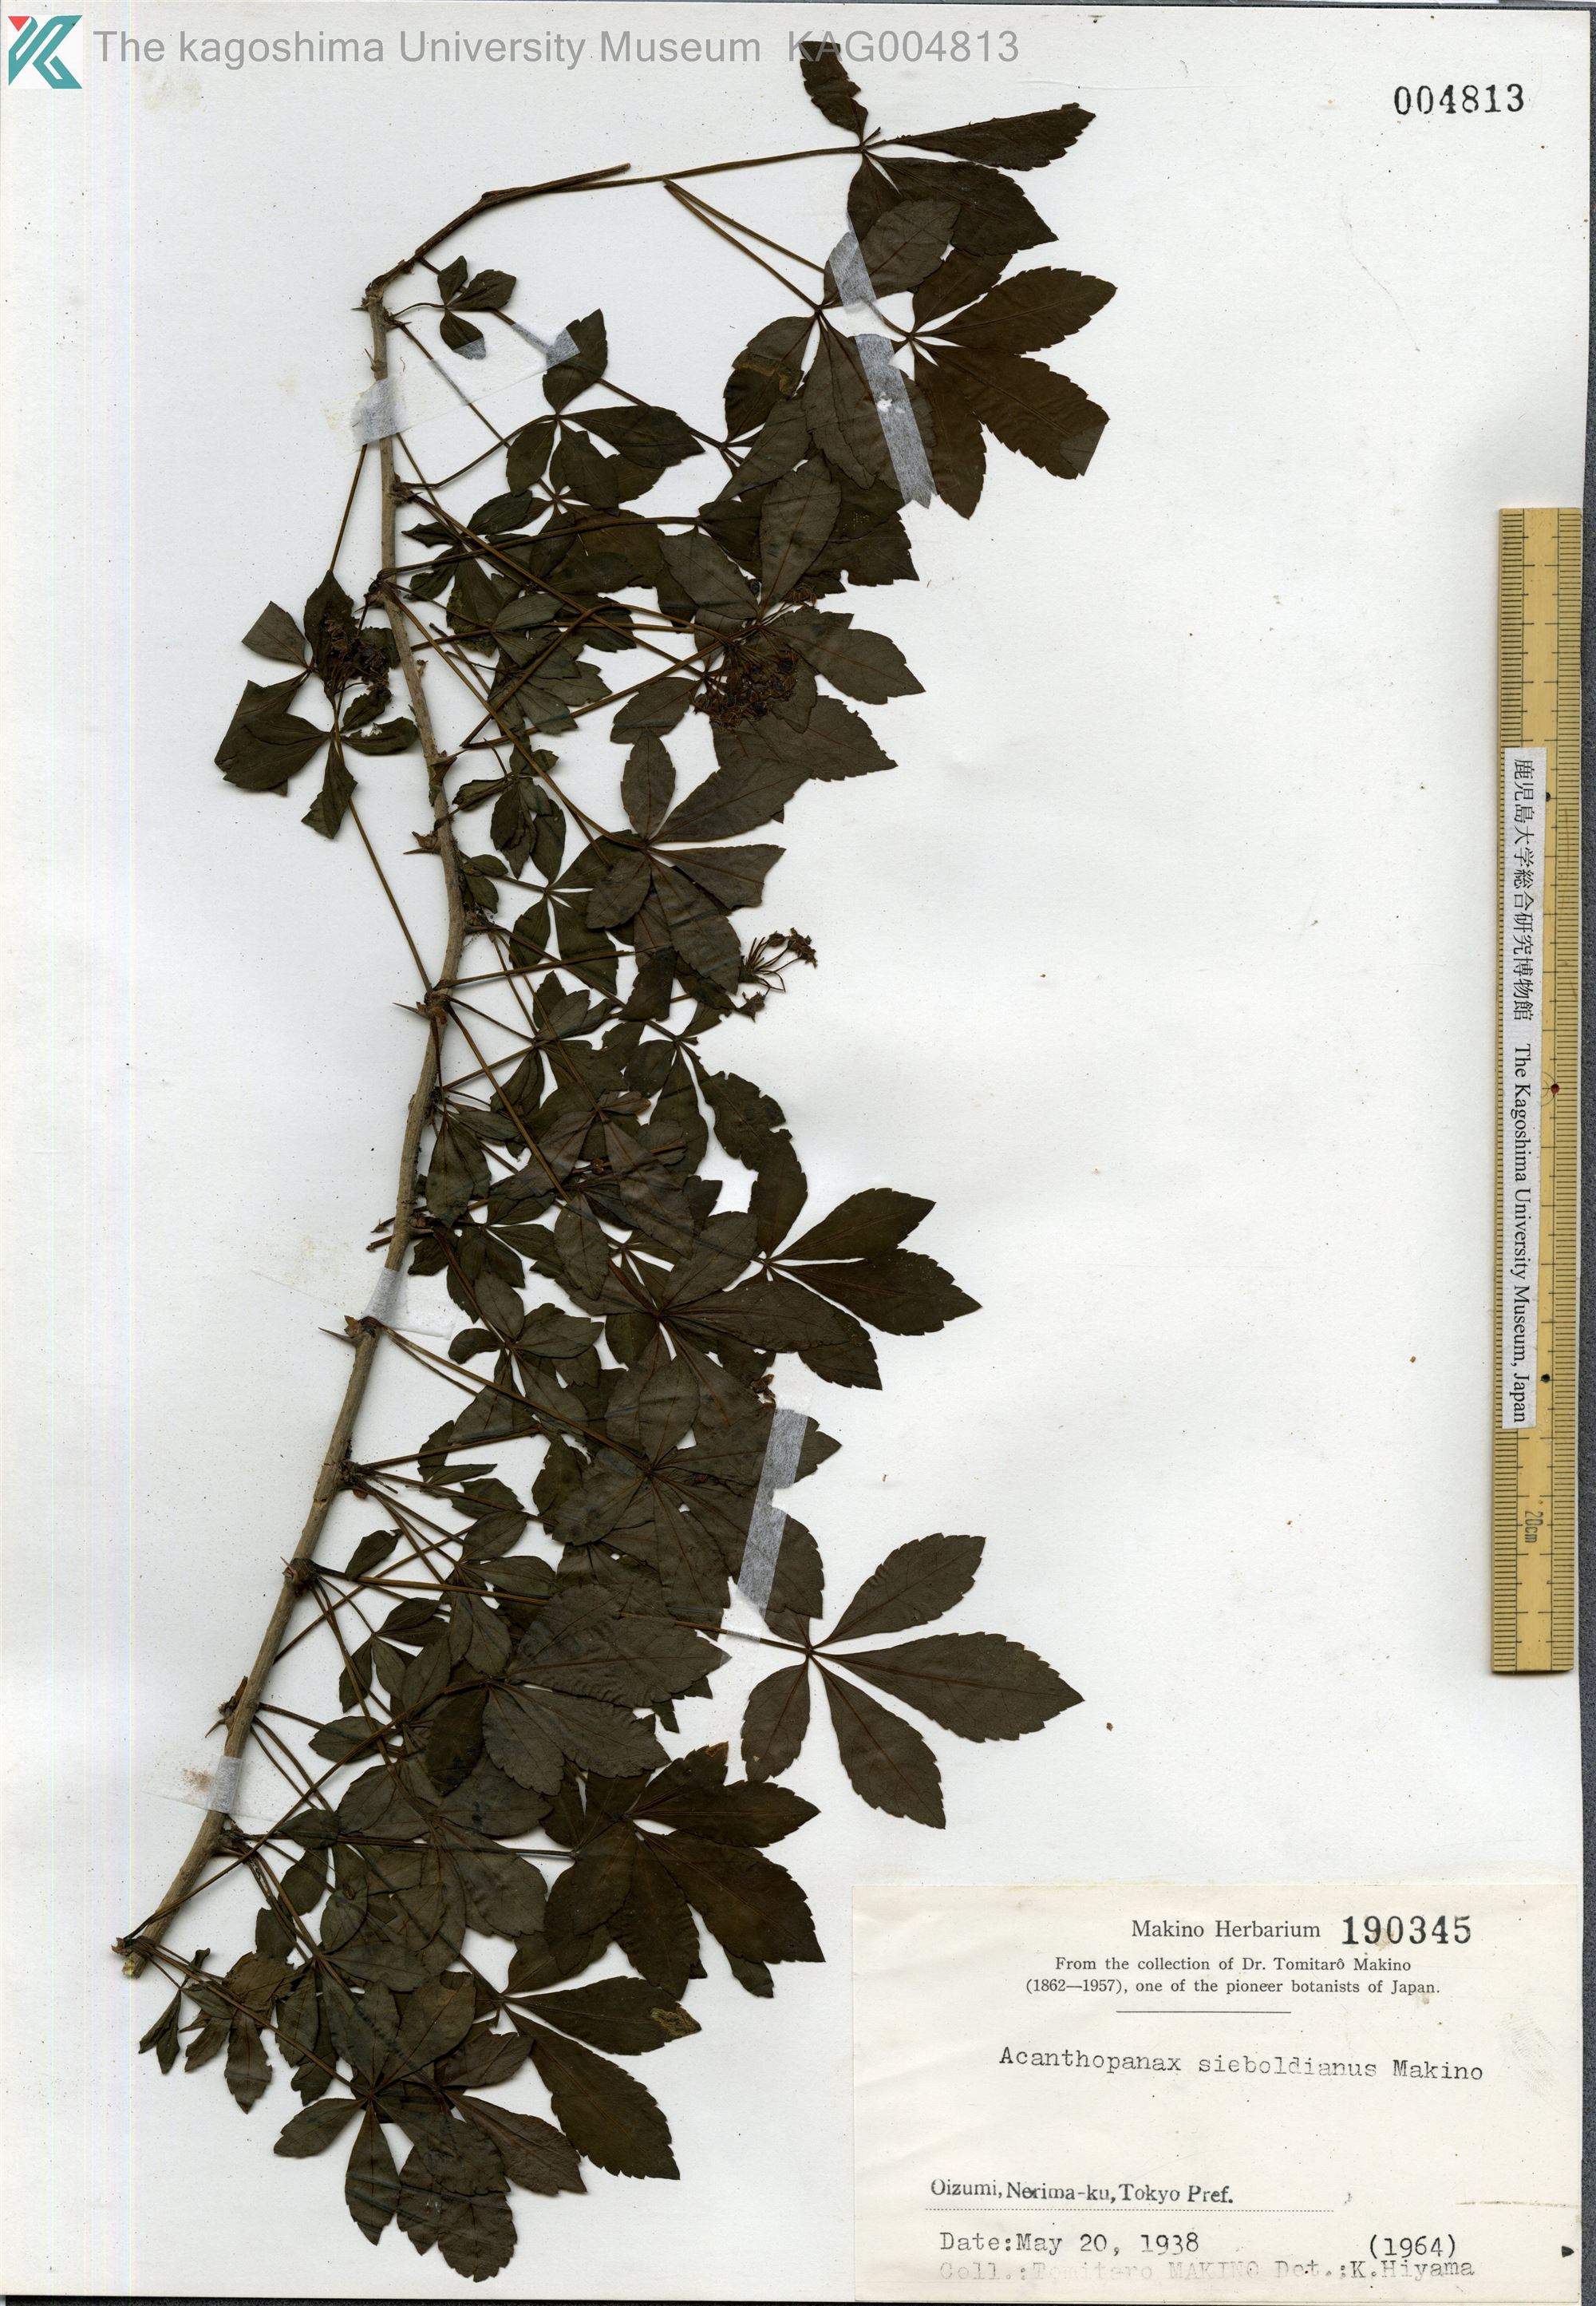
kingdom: Plantae
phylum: Tracheophyta
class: Magnoliopsida
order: Apiales
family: Araliaceae
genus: Eleutherococcus
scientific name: Eleutherococcus sieboldianus
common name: Ginseng
